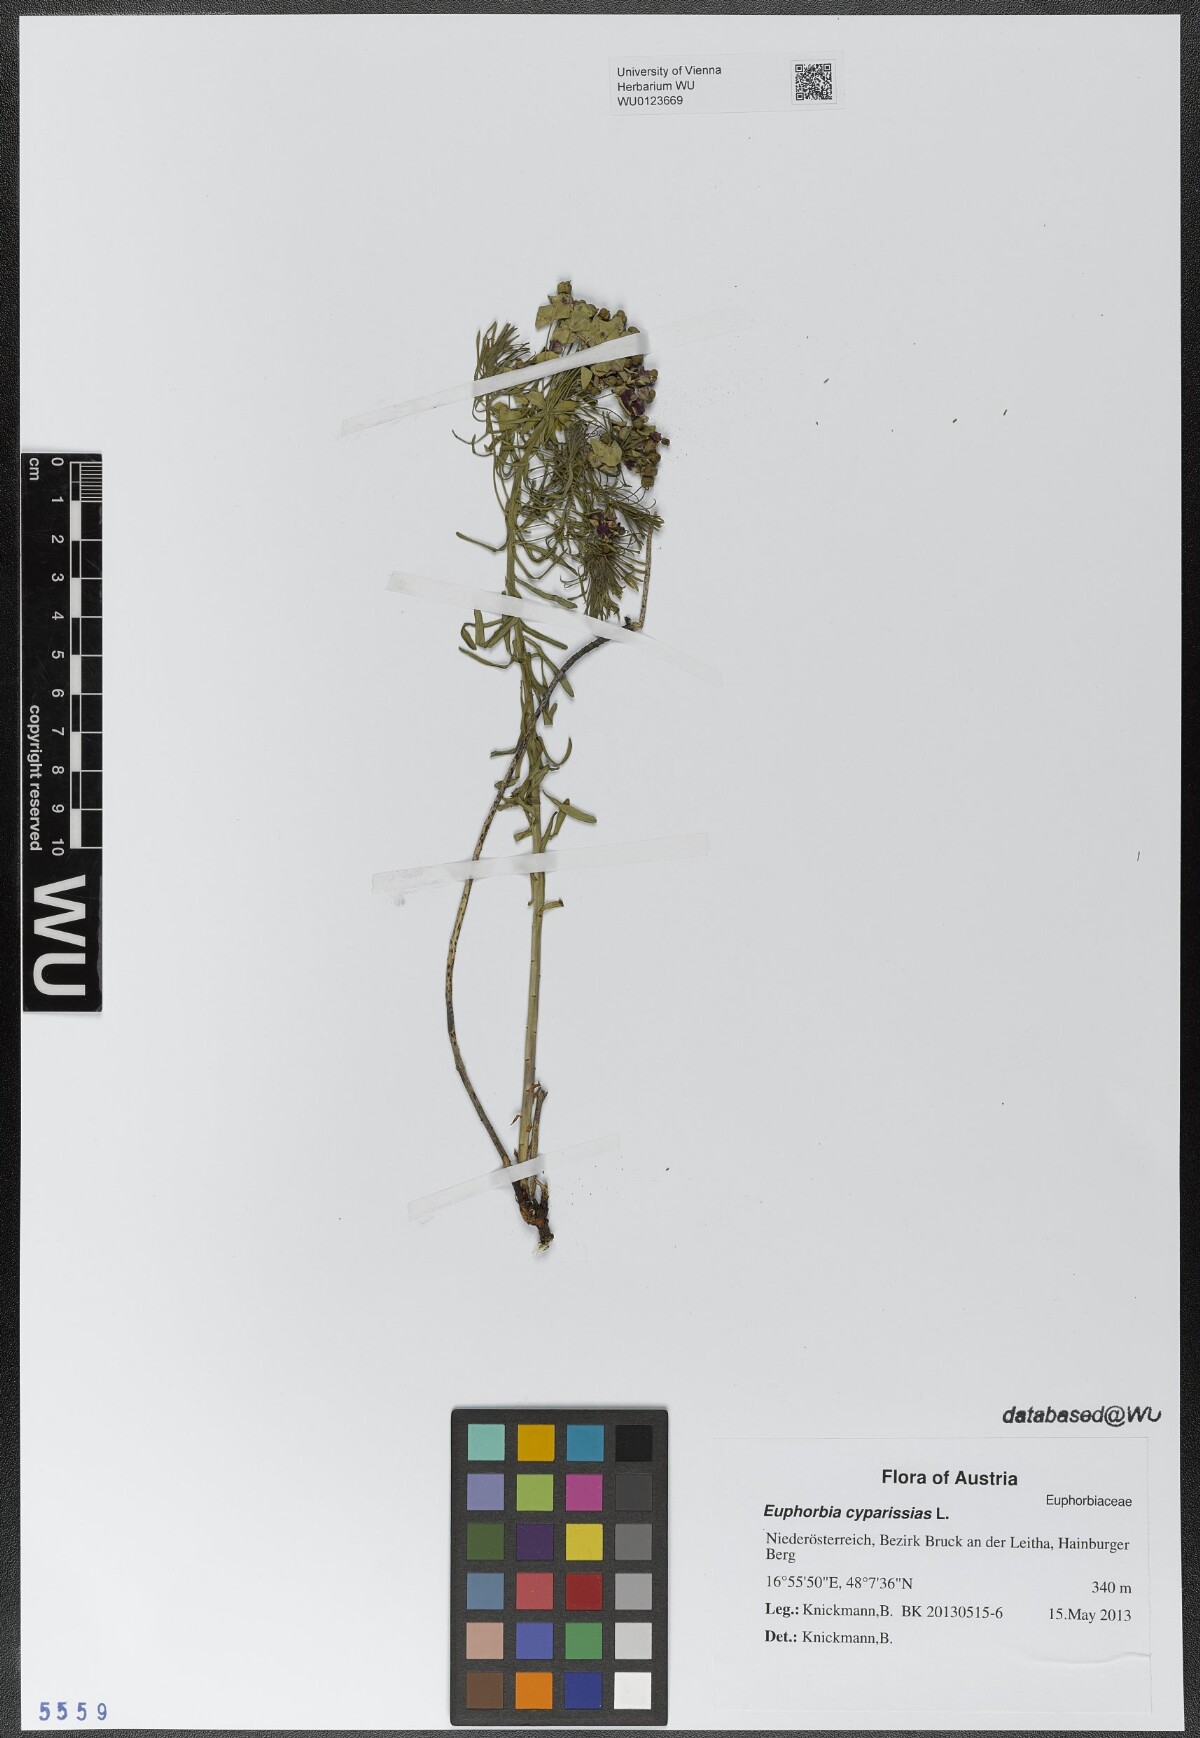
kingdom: Plantae
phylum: Tracheophyta
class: Magnoliopsida
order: Malpighiales
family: Euphorbiaceae
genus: Euphorbia
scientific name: Euphorbia cyparissias
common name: Cypress spurge
